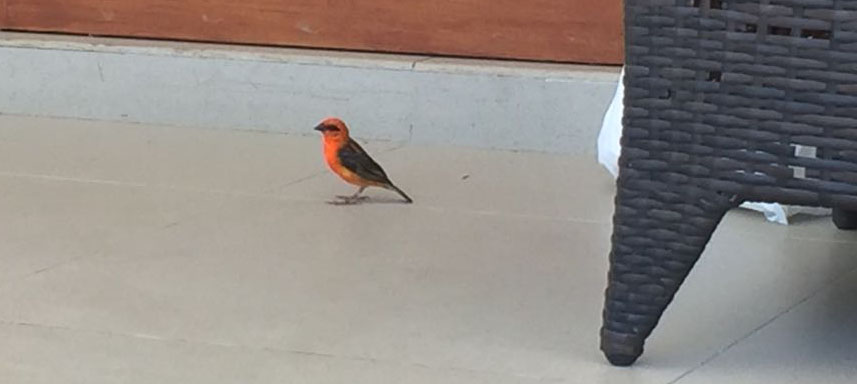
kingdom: Animalia
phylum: Chordata
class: Aves
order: Passeriformes
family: Ploceidae
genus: Foudia
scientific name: Foudia madagascariensis
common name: Red fody
